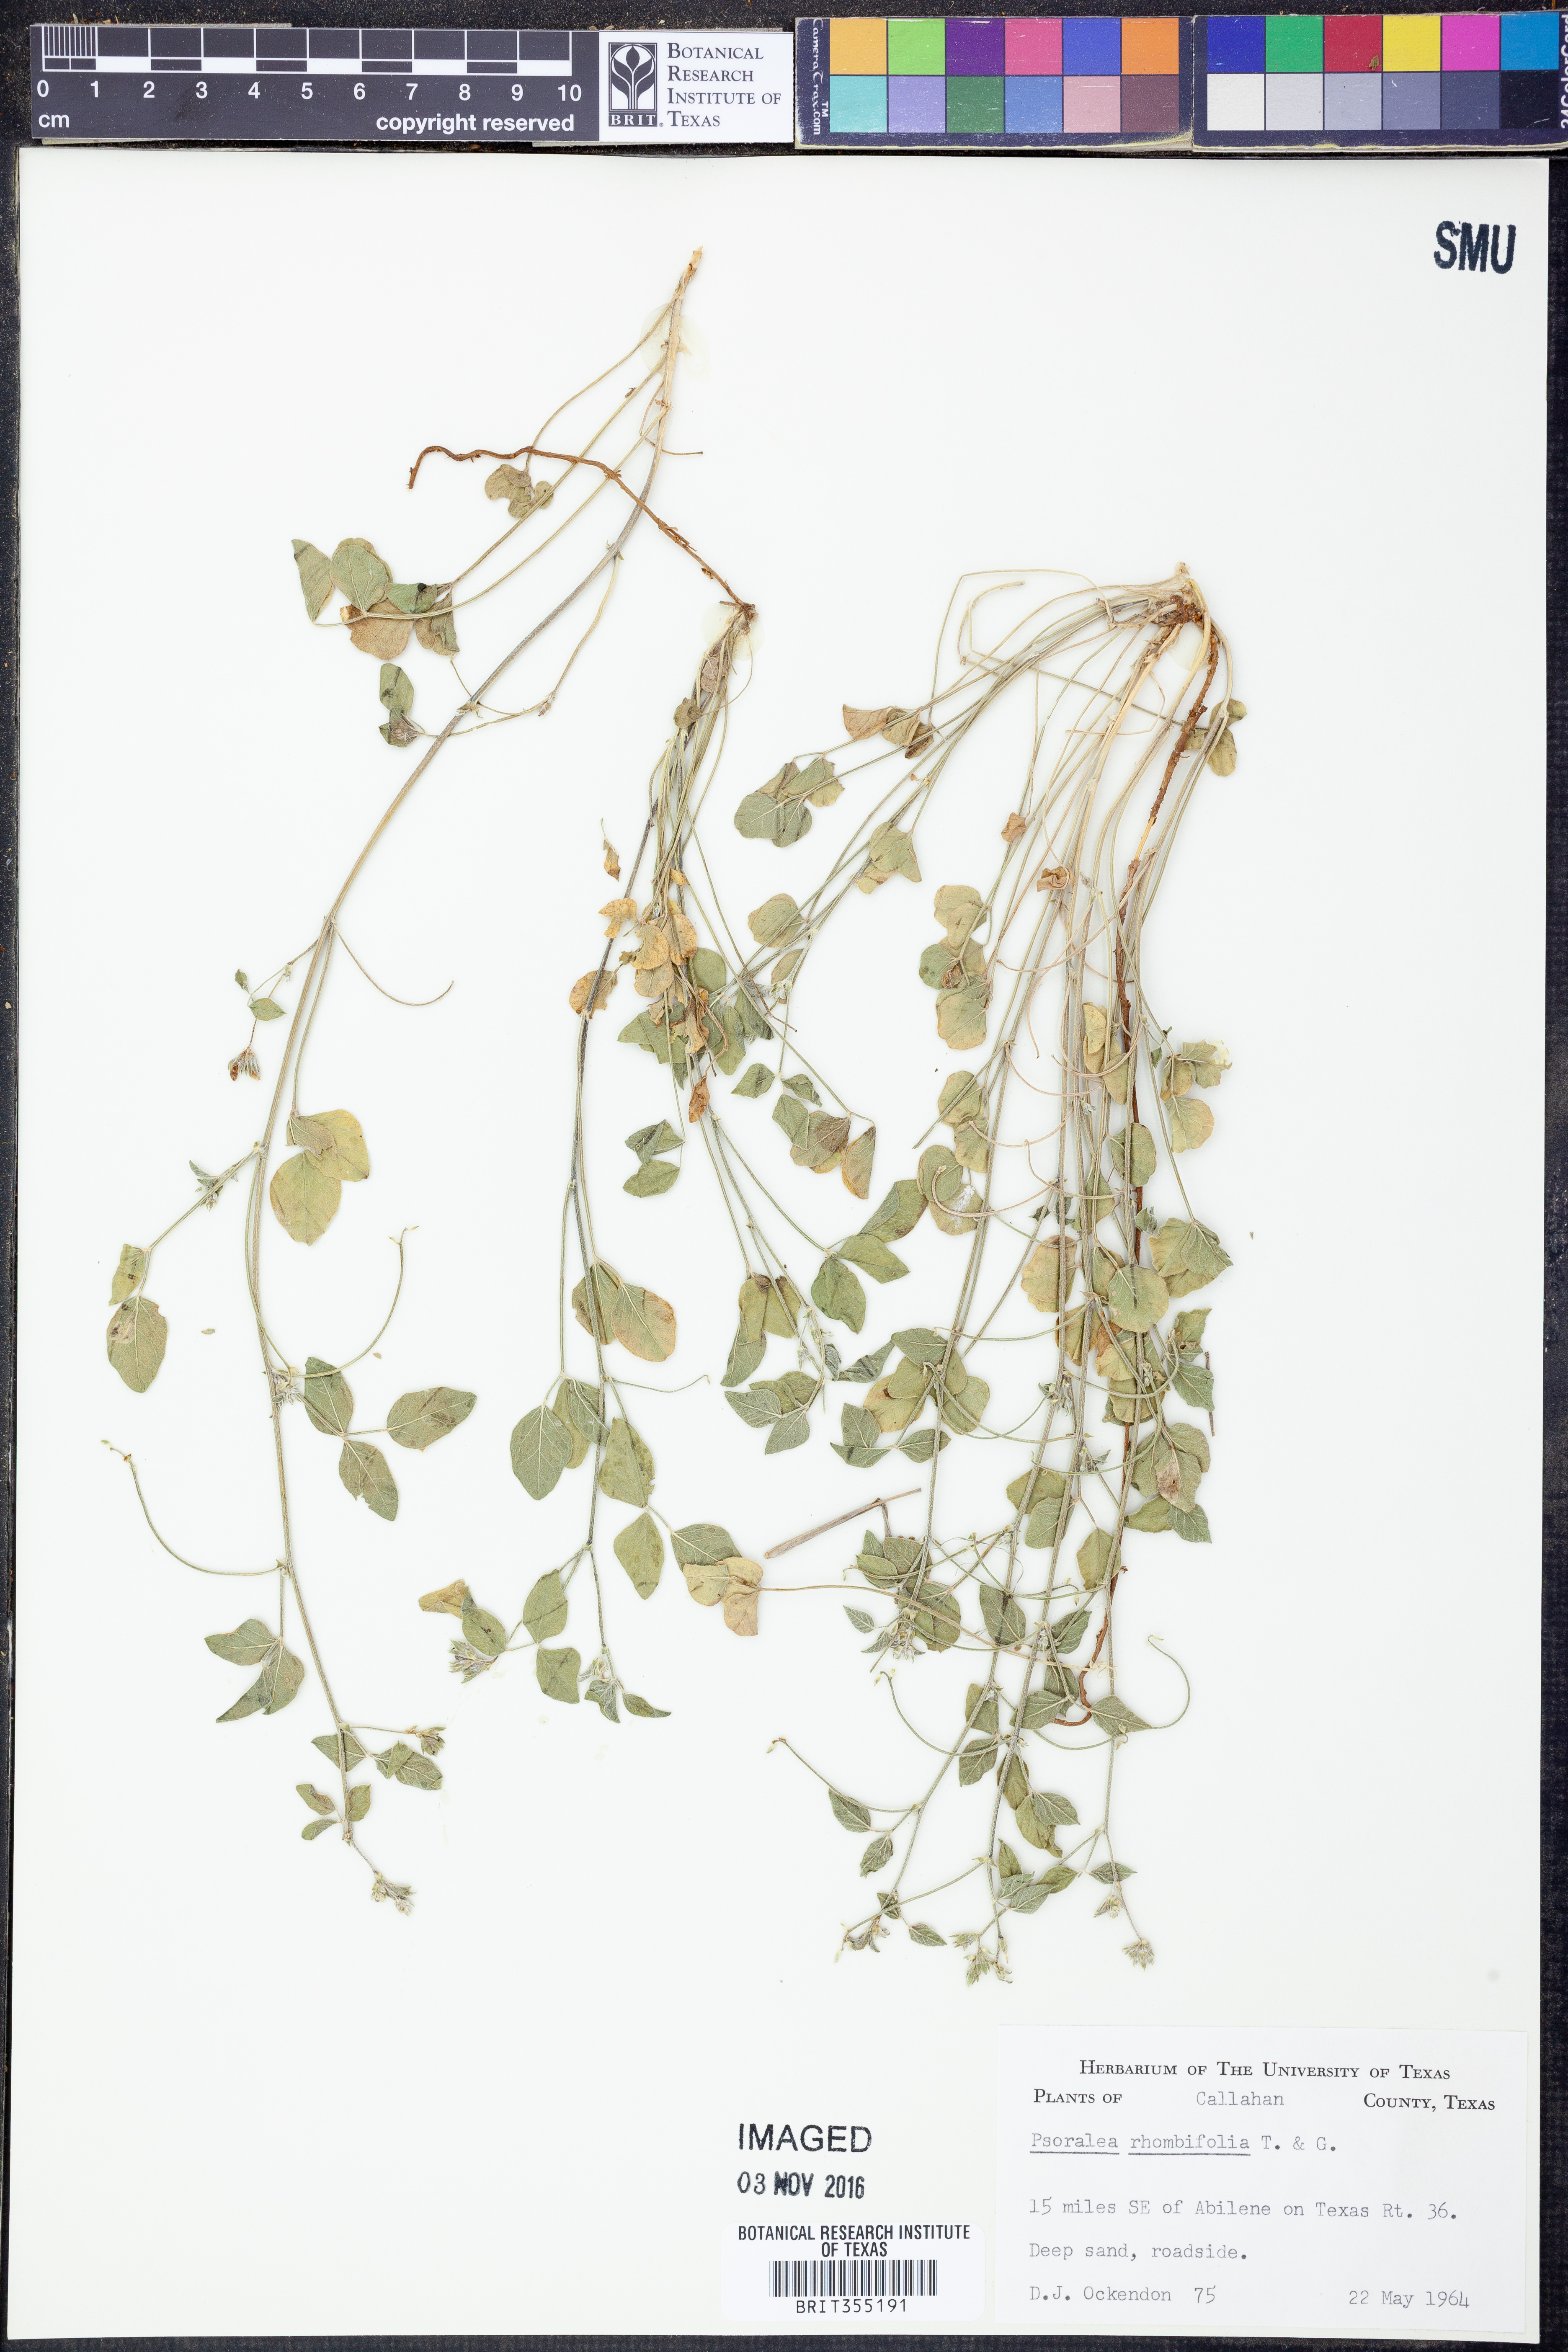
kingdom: Plantae
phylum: Tracheophyta
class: Magnoliopsida
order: Fabales
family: Fabaceae
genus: Pediomelum
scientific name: Pediomelum rhombifolium
